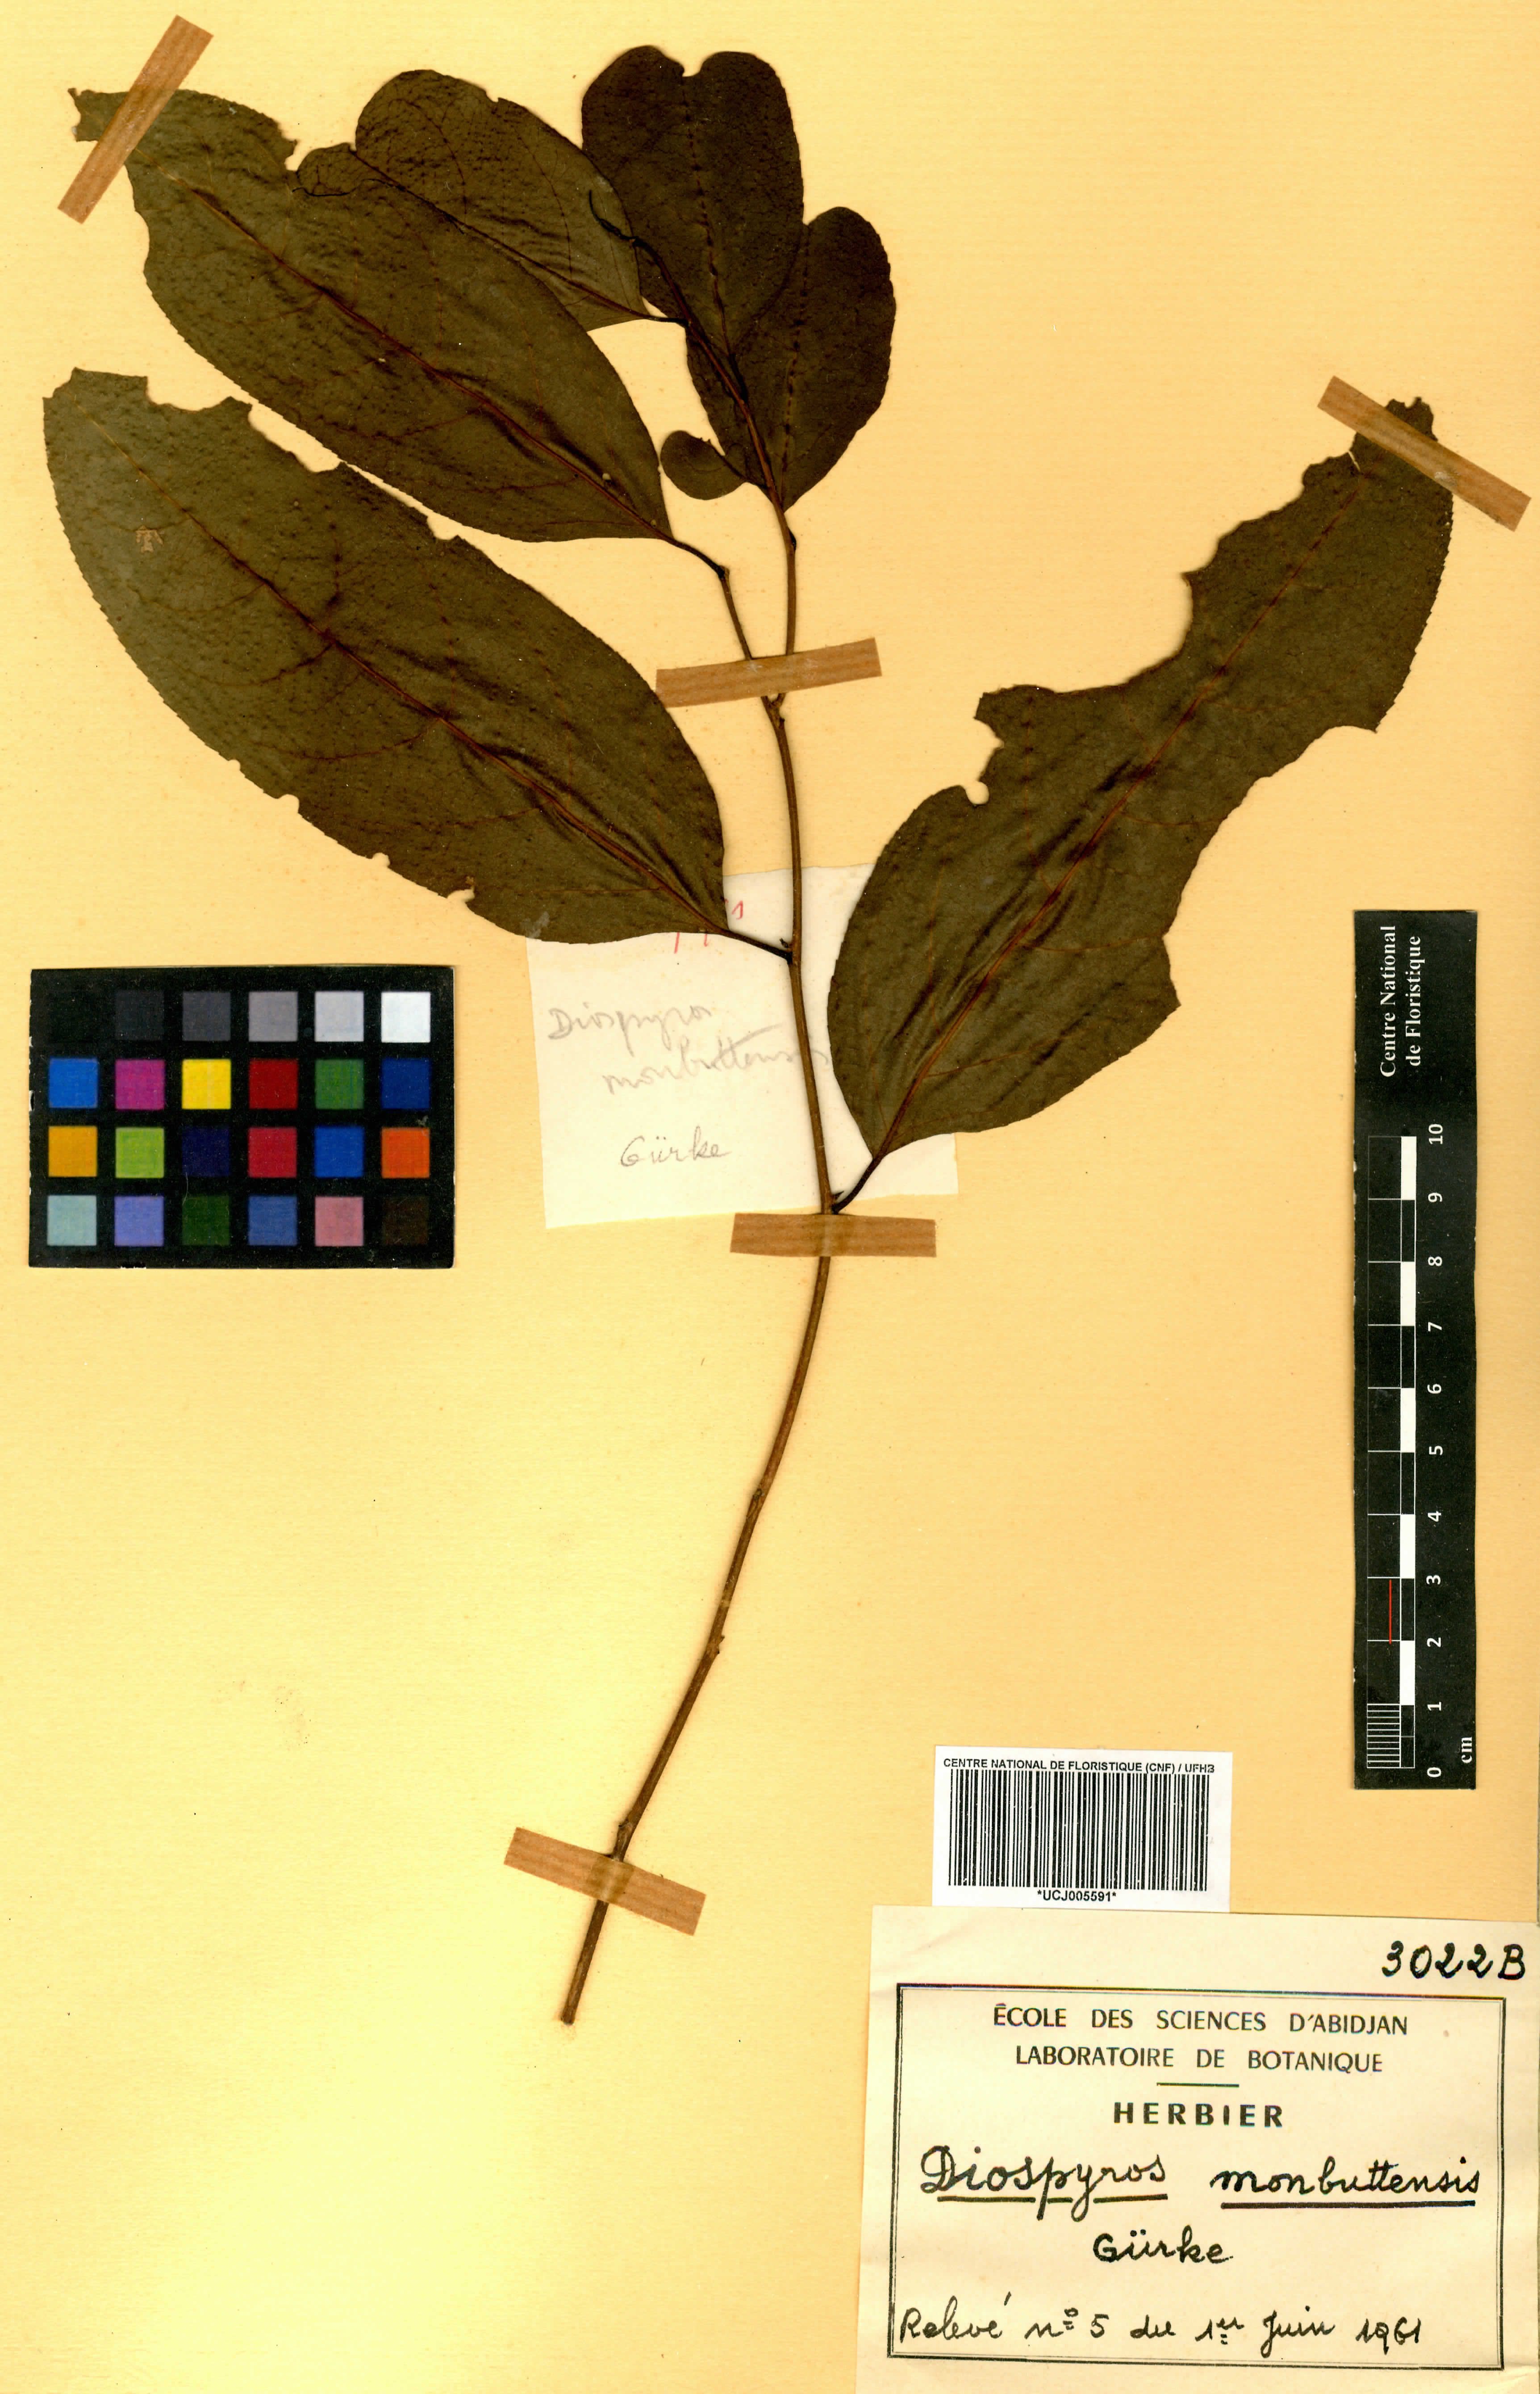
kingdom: Plantae
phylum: Tracheophyta
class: Magnoliopsida
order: Ericales
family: Ebenaceae
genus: Diospyros
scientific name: Diospyros monbuttensis
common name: Walking-stick ebony
